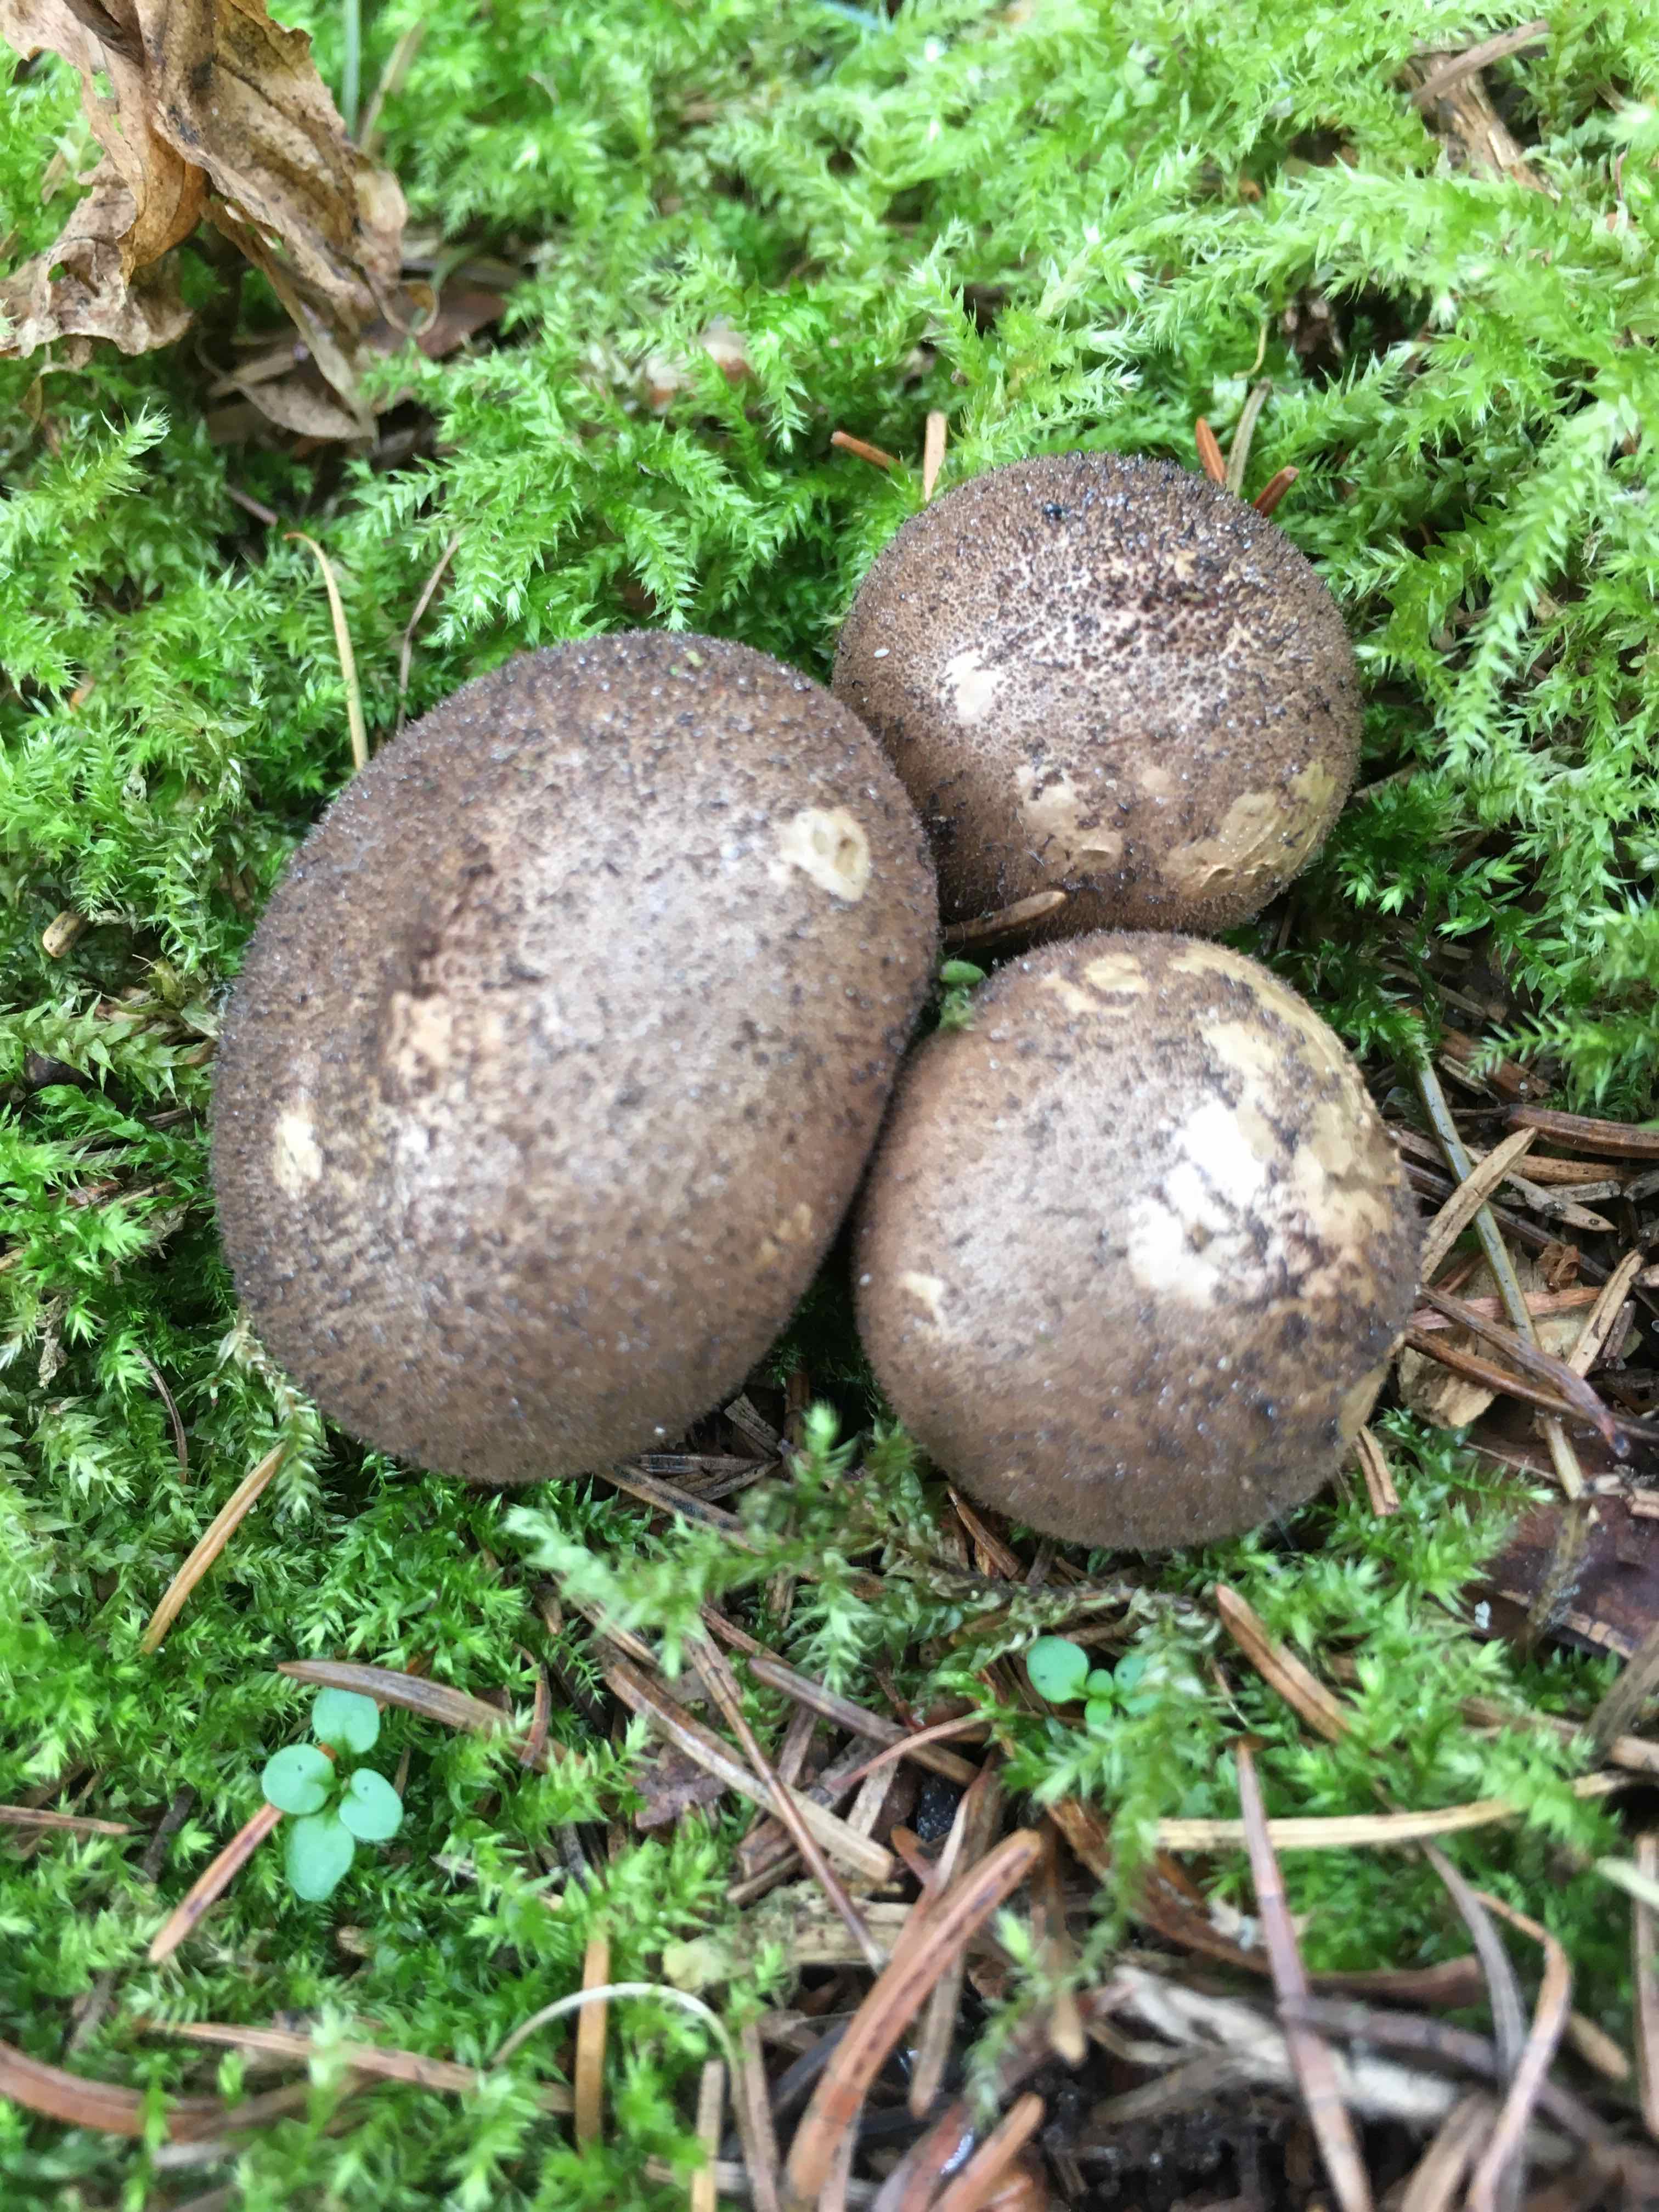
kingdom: Fungi
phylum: Basidiomycota
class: Agaricomycetes
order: Agaricales
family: Agaricaceae
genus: Lycoperdon
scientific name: Lycoperdon
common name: støvbold
